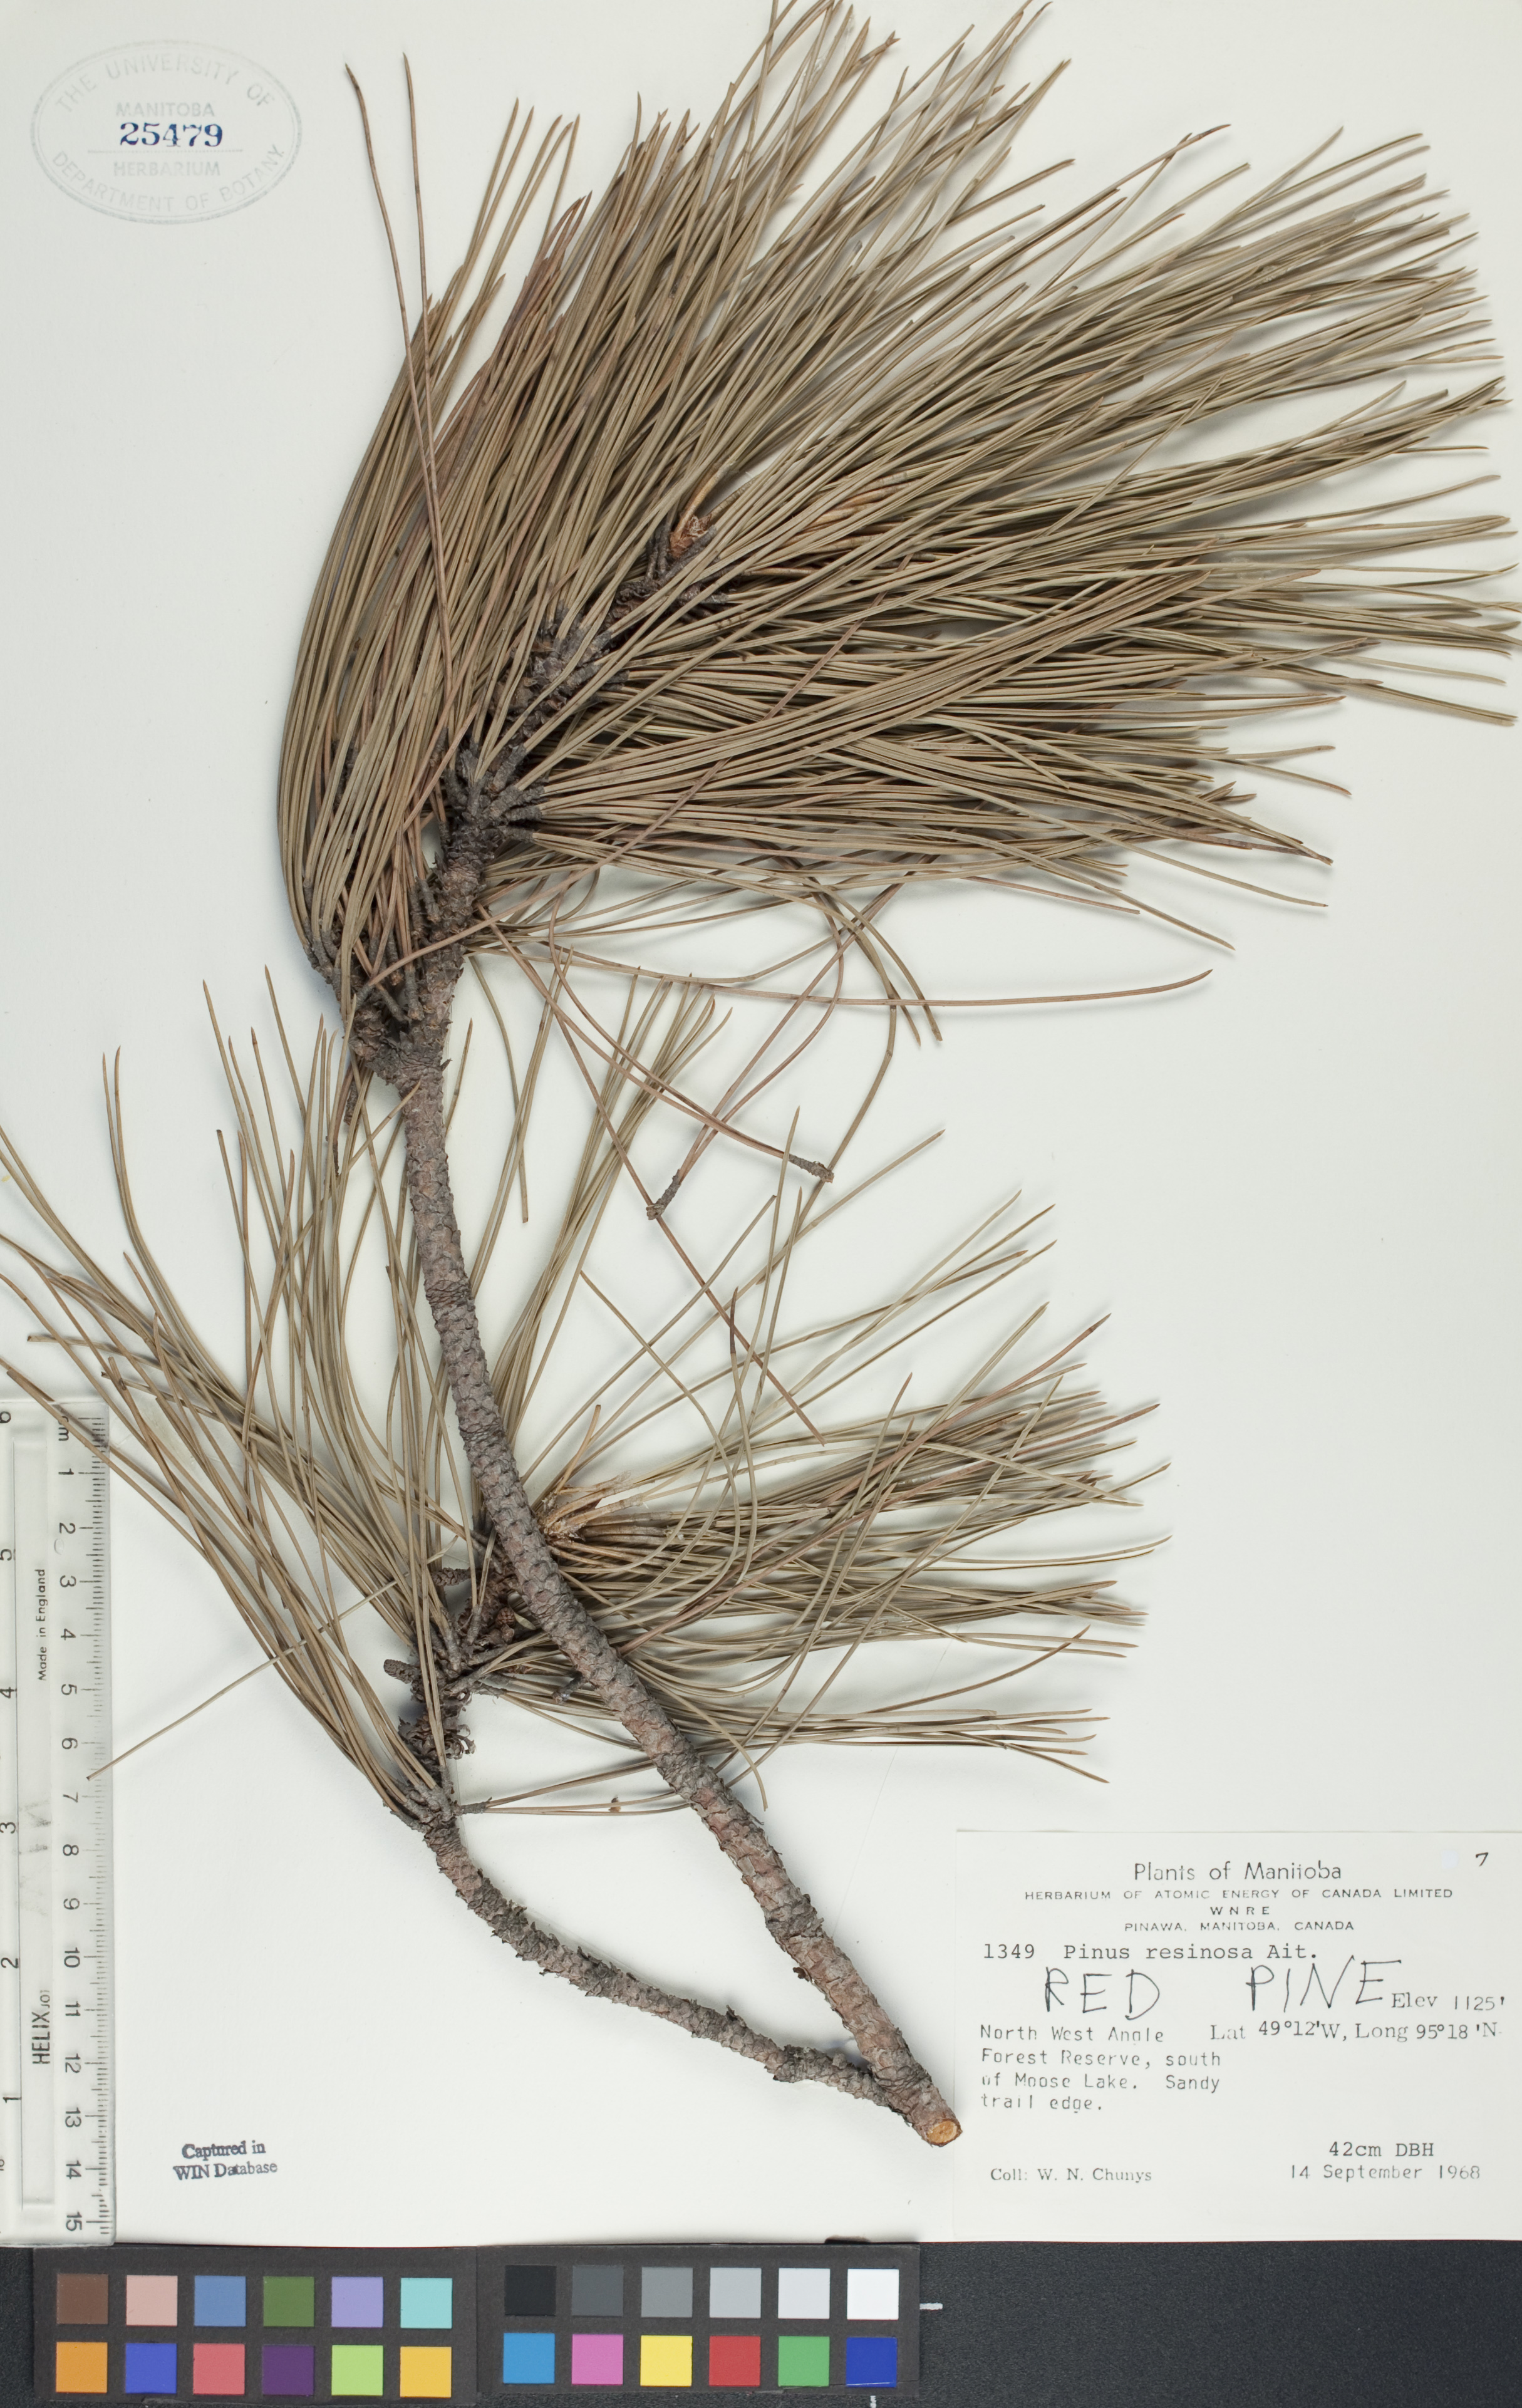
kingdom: Plantae
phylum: Tracheophyta
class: Pinopsida
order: Pinales
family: Pinaceae
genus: Pinus
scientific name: Pinus resinosa
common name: Norway pine
